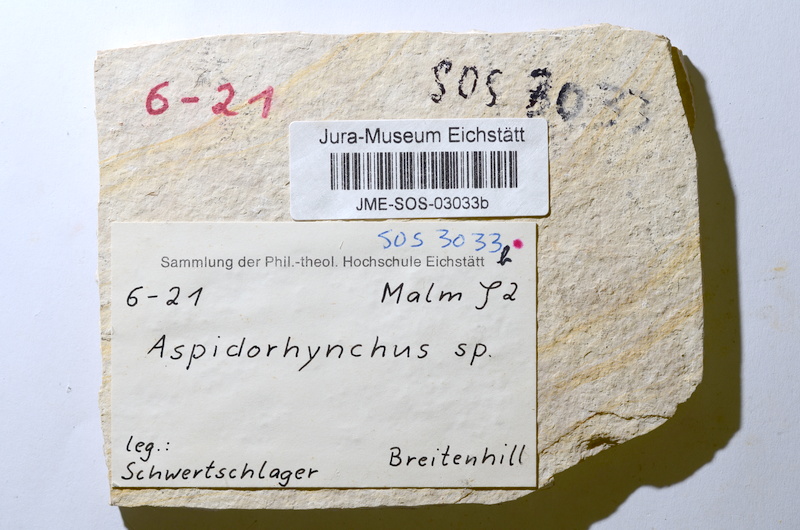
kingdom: Animalia
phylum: Chordata
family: Aspidorhynchidae
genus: Aspidorhynchus
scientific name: Aspidorhynchus acutirostris
